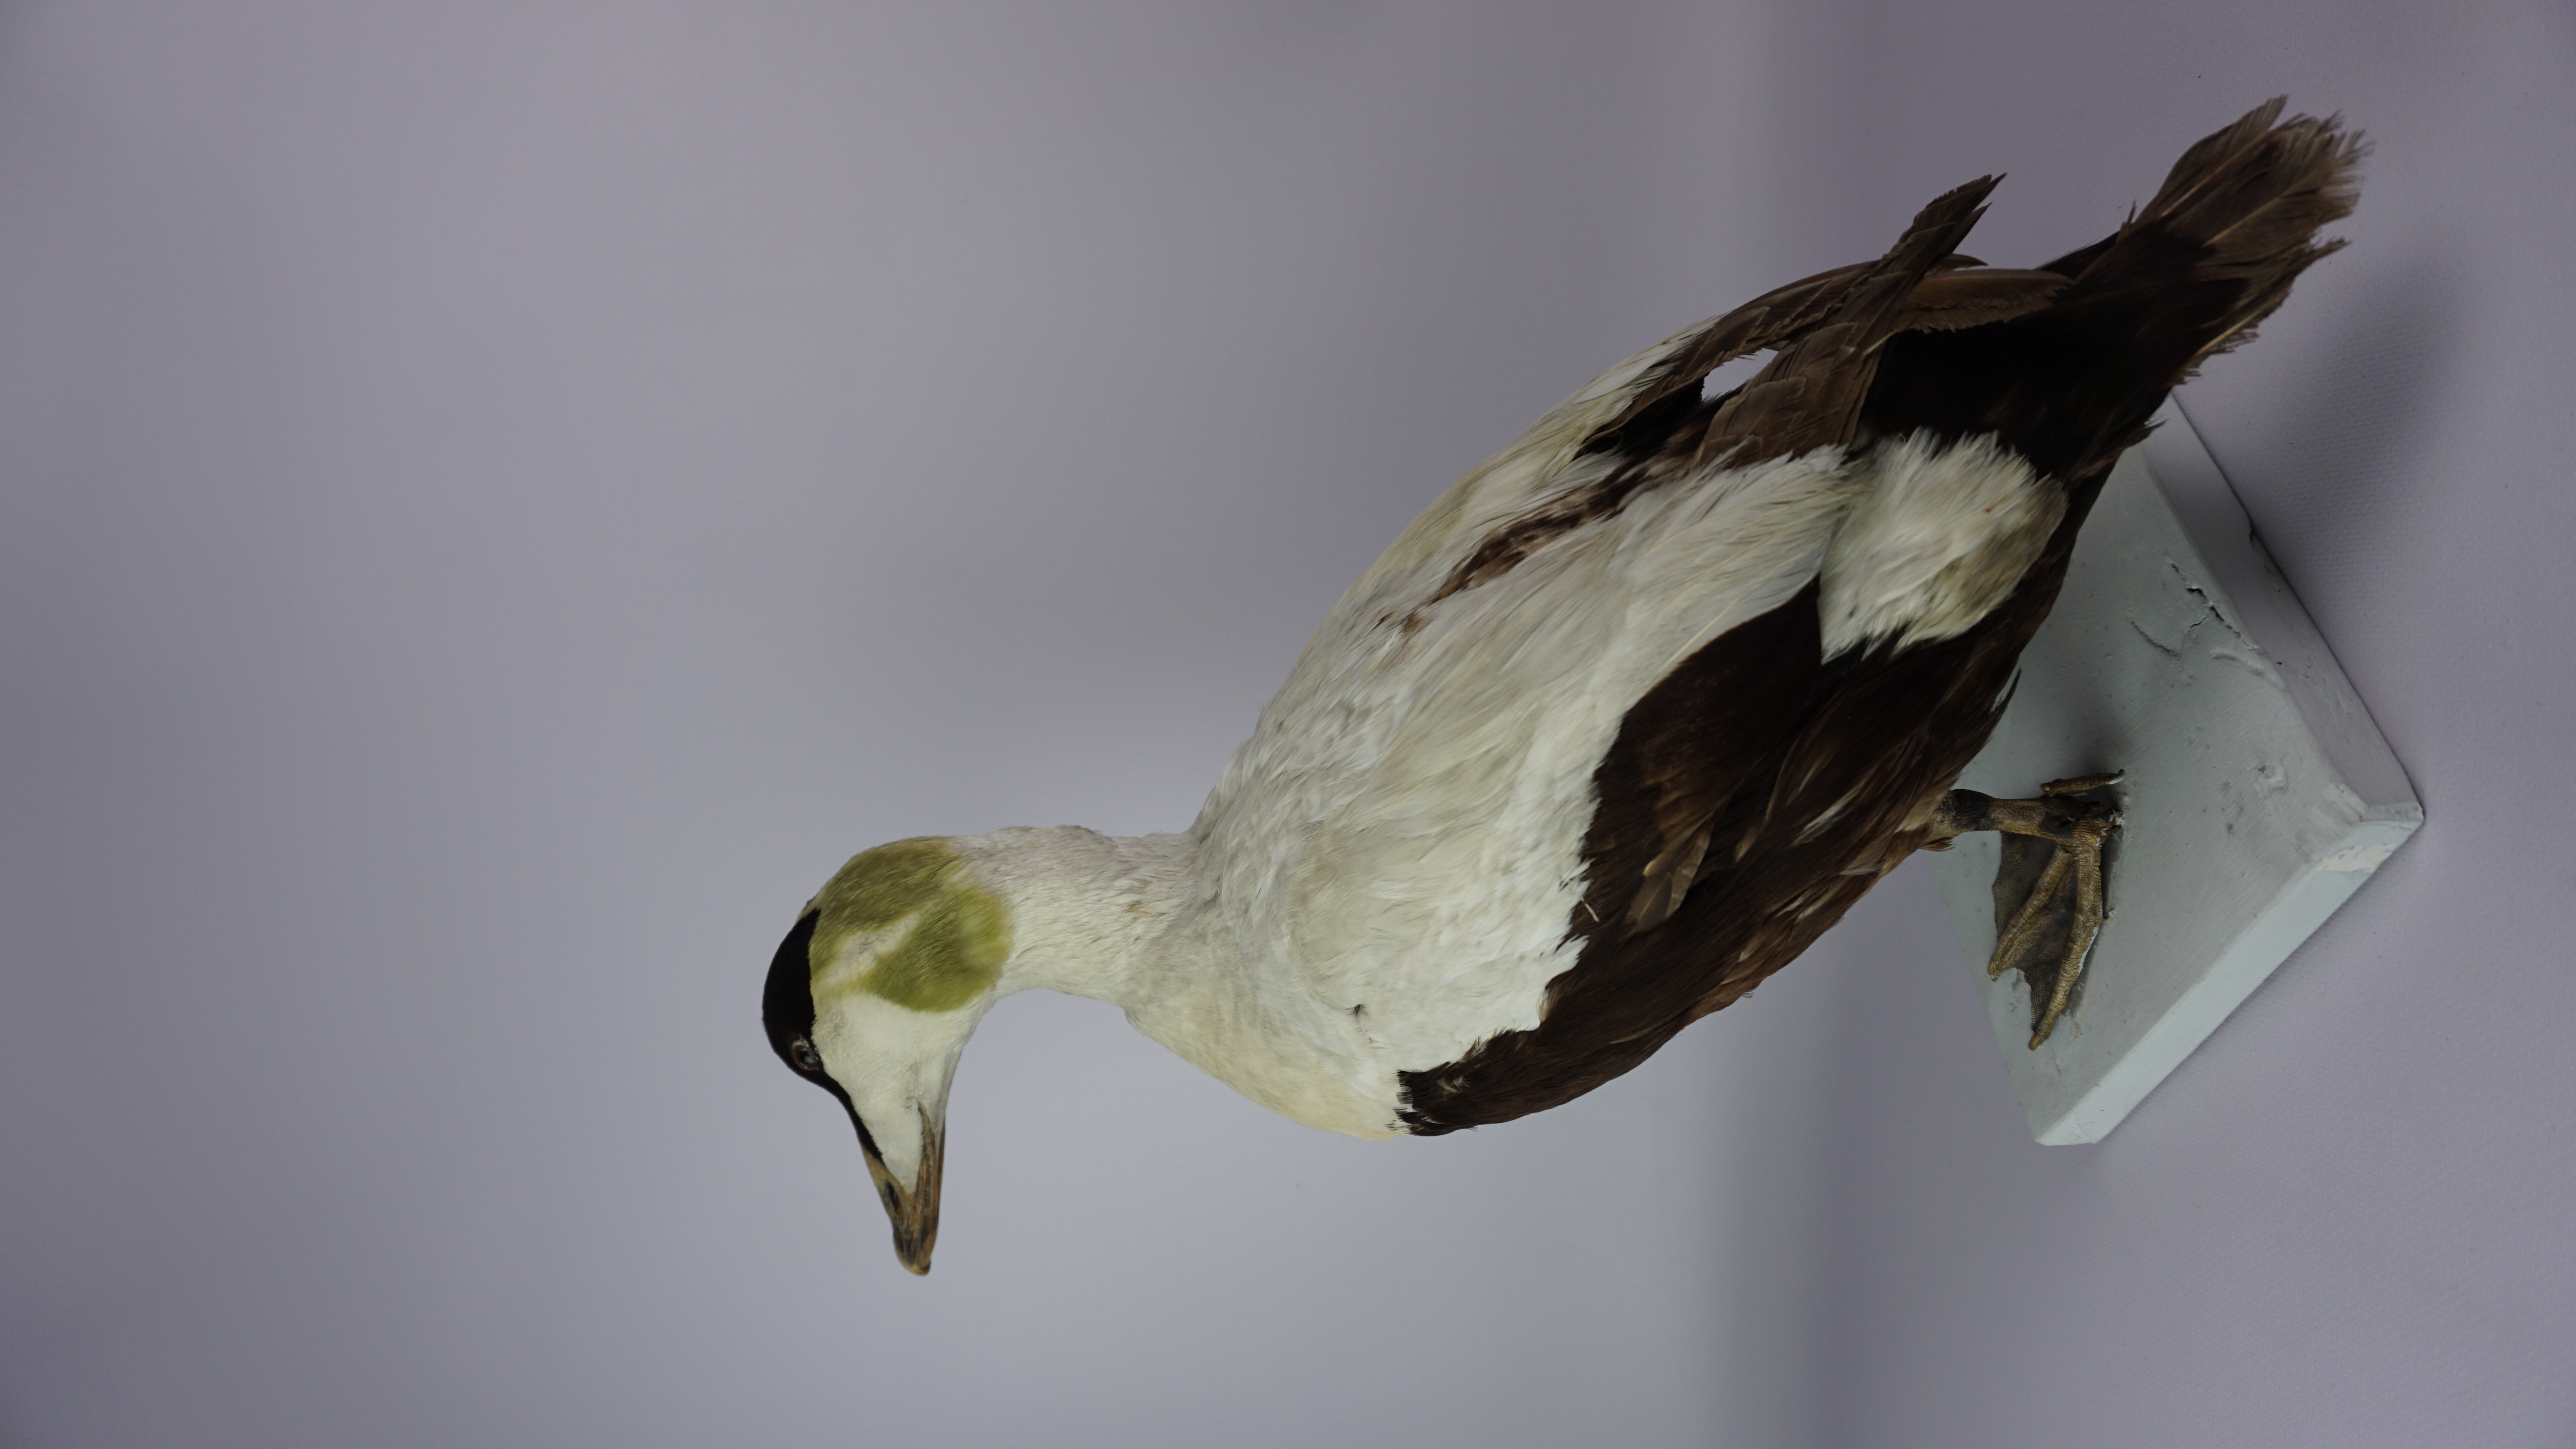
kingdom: Animalia
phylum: Chordata
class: Aves
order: Anseriformes
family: Anatidae
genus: Somateria
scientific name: Somateria mollissima
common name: Common eider
